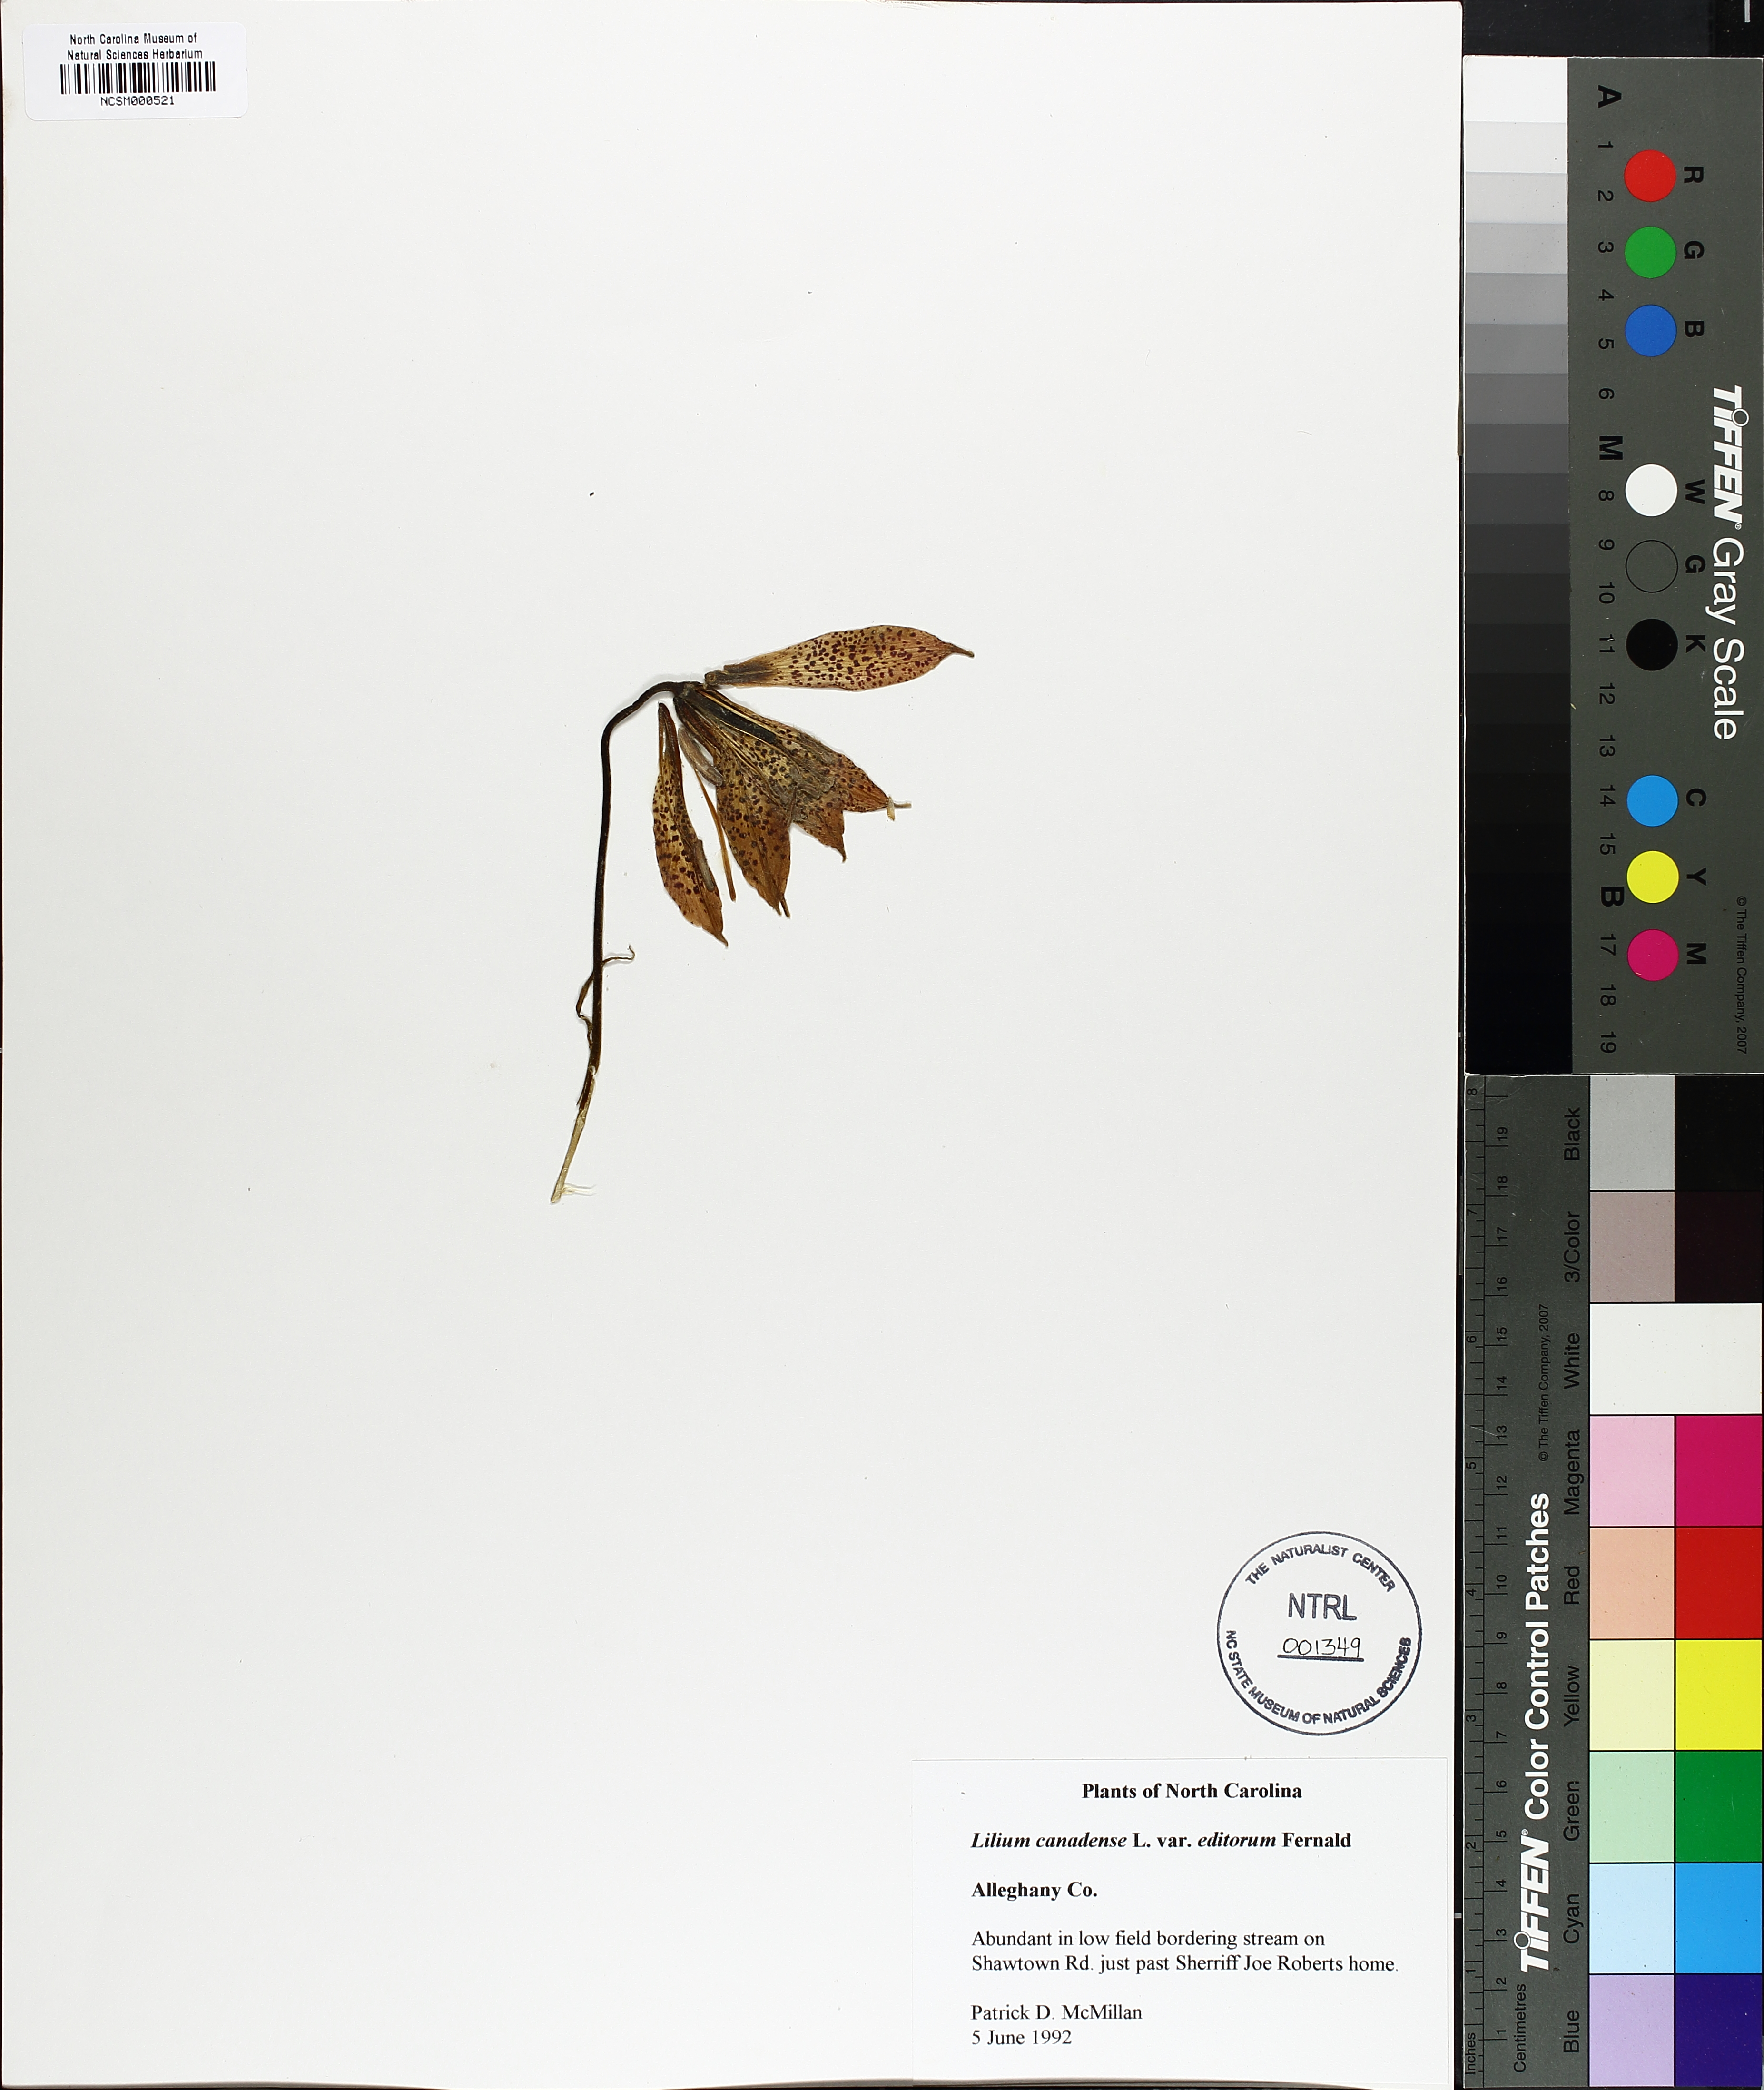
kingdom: Plantae
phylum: Tracheophyta
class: Liliopsida
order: Liliales
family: Liliaceae
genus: Lilium
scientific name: Lilium canadense
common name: Canada lily
